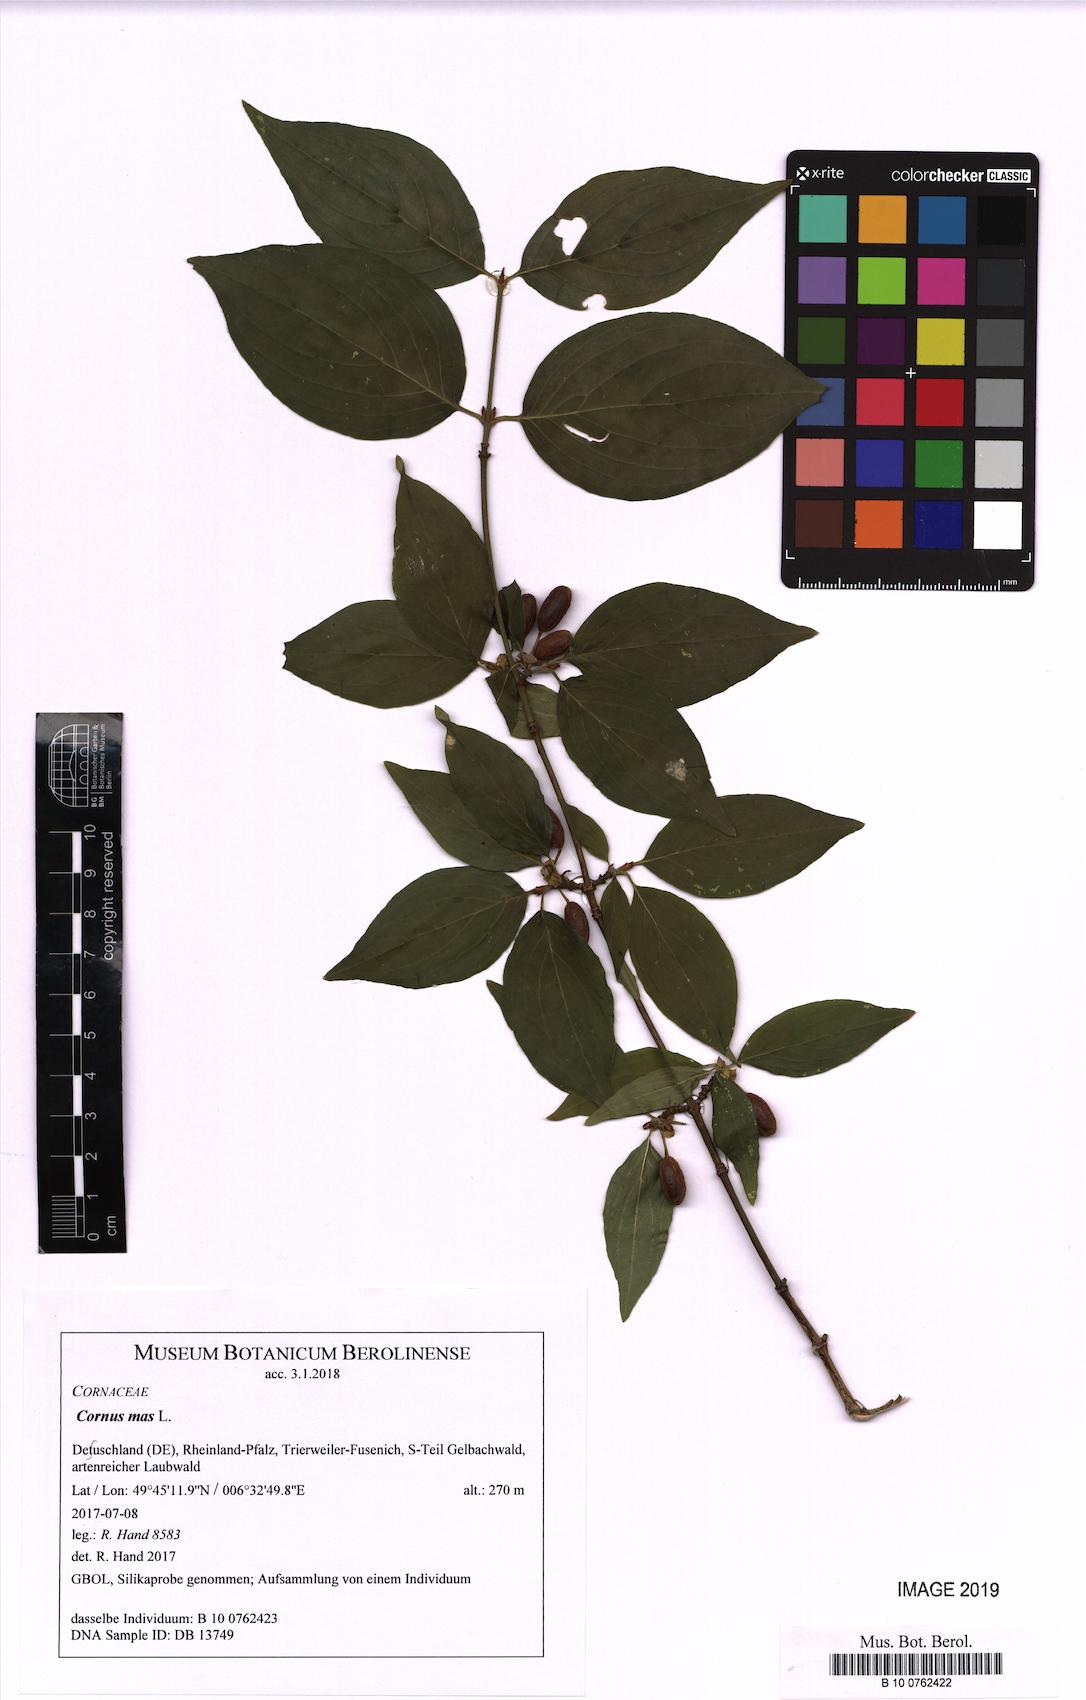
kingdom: Plantae
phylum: Tracheophyta
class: Magnoliopsida
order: Cornales
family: Cornaceae
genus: Cornus
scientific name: Cornus mas
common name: Cornelian-cherry
